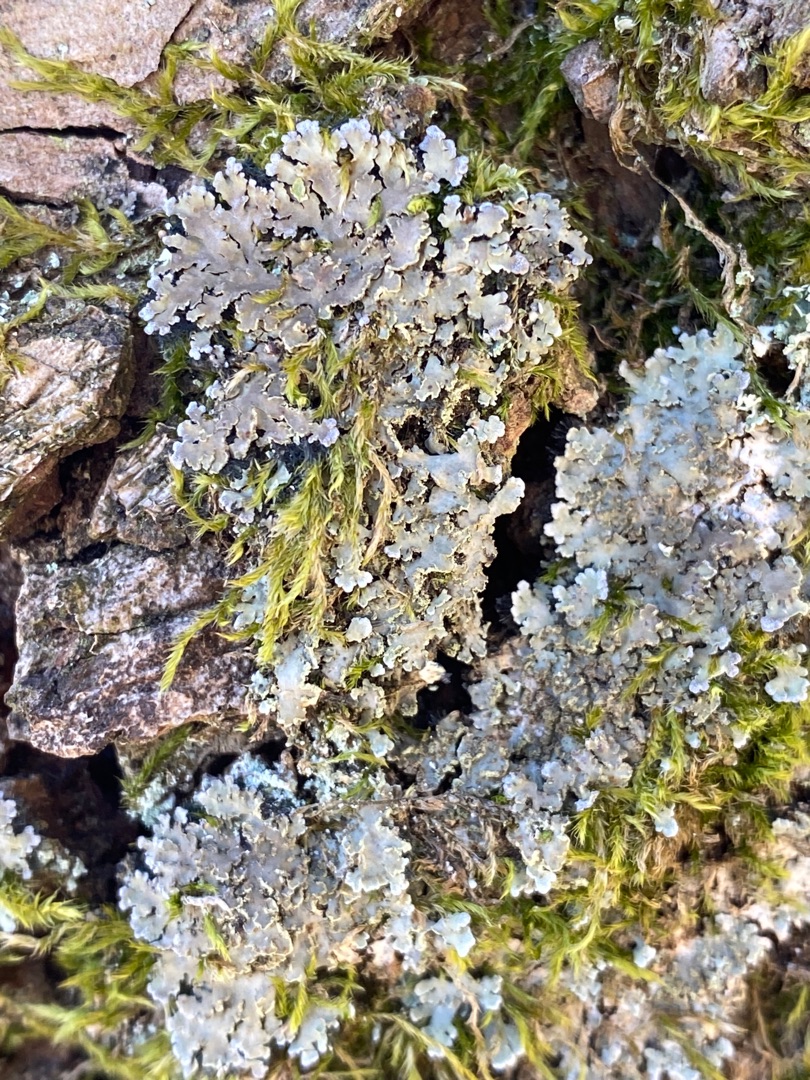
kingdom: Fungi
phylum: Ascomycota
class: Lecanoromycetes
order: Caliciales
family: Physciaceae
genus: Physconia
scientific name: Physconia
